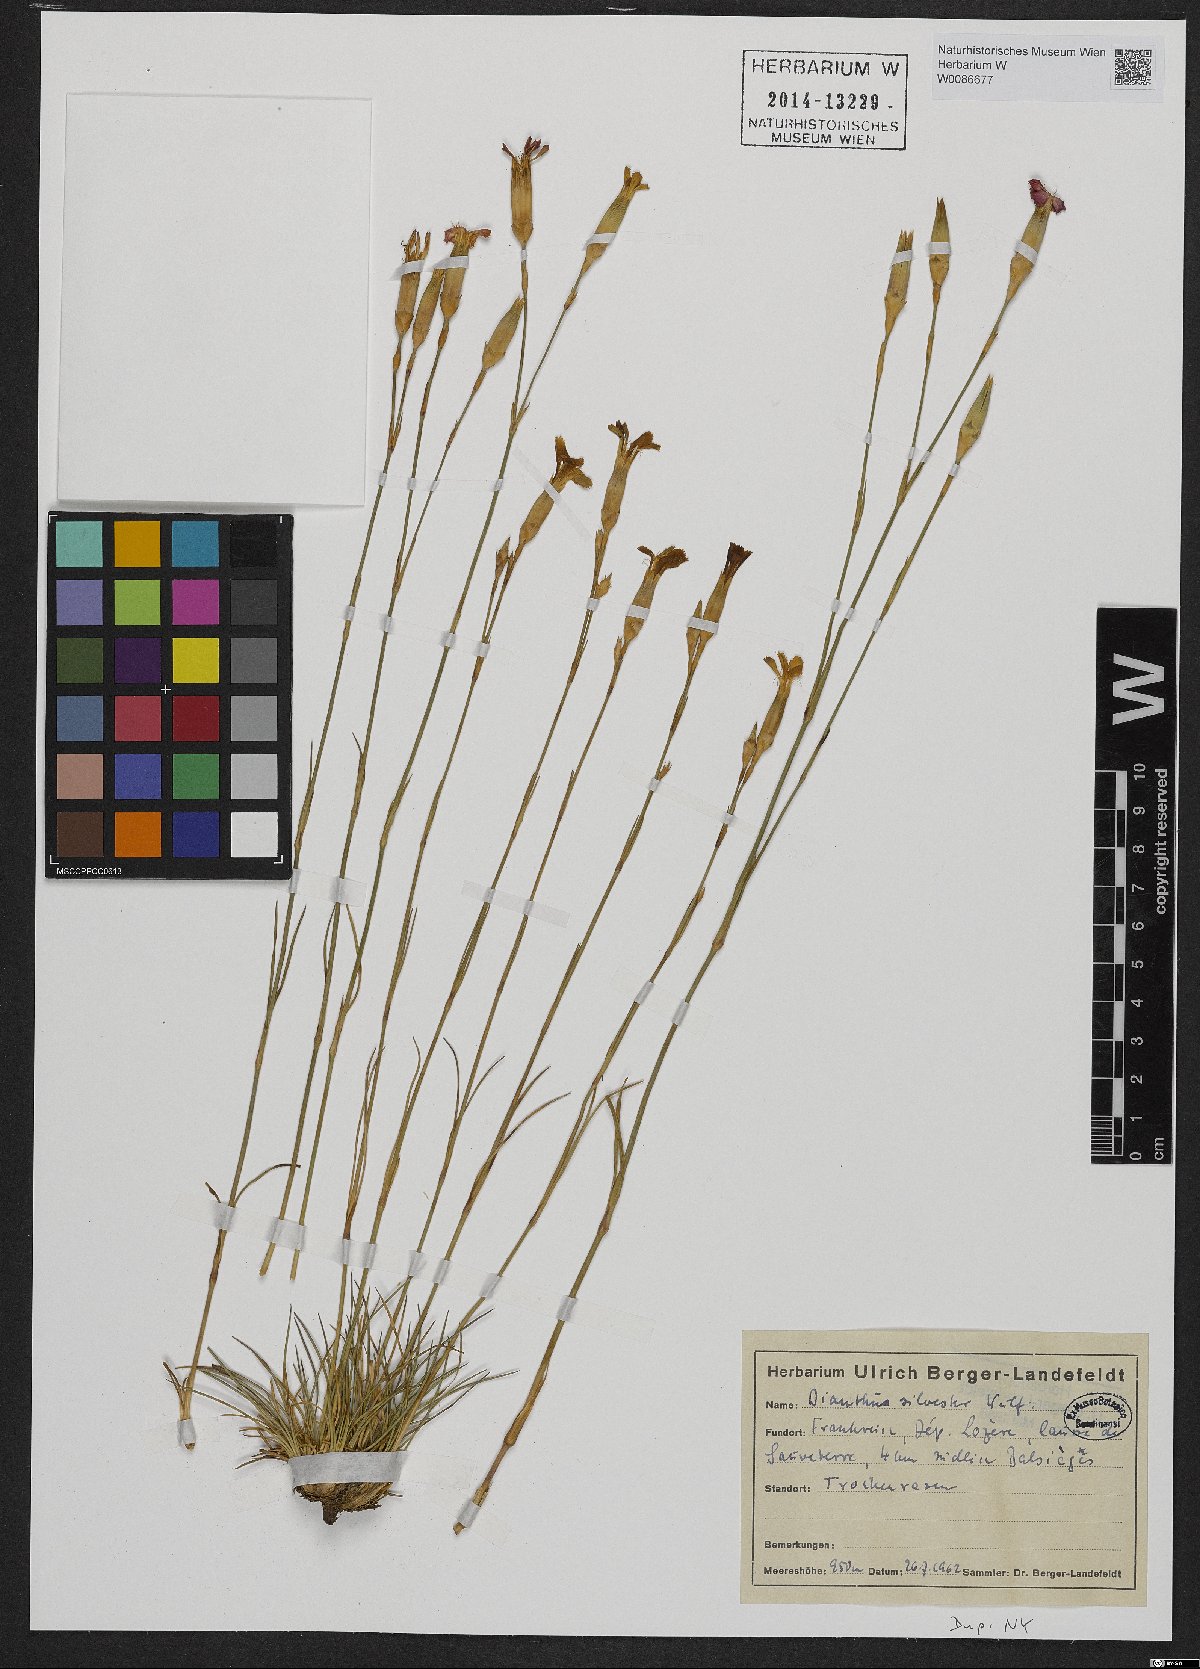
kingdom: Plantae
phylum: Tracheophyta
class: Magnoliopsida
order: Caryophyllales
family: Caryophyllaceae
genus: Dianthus
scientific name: Dianthus sylvestris
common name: Wood pink
